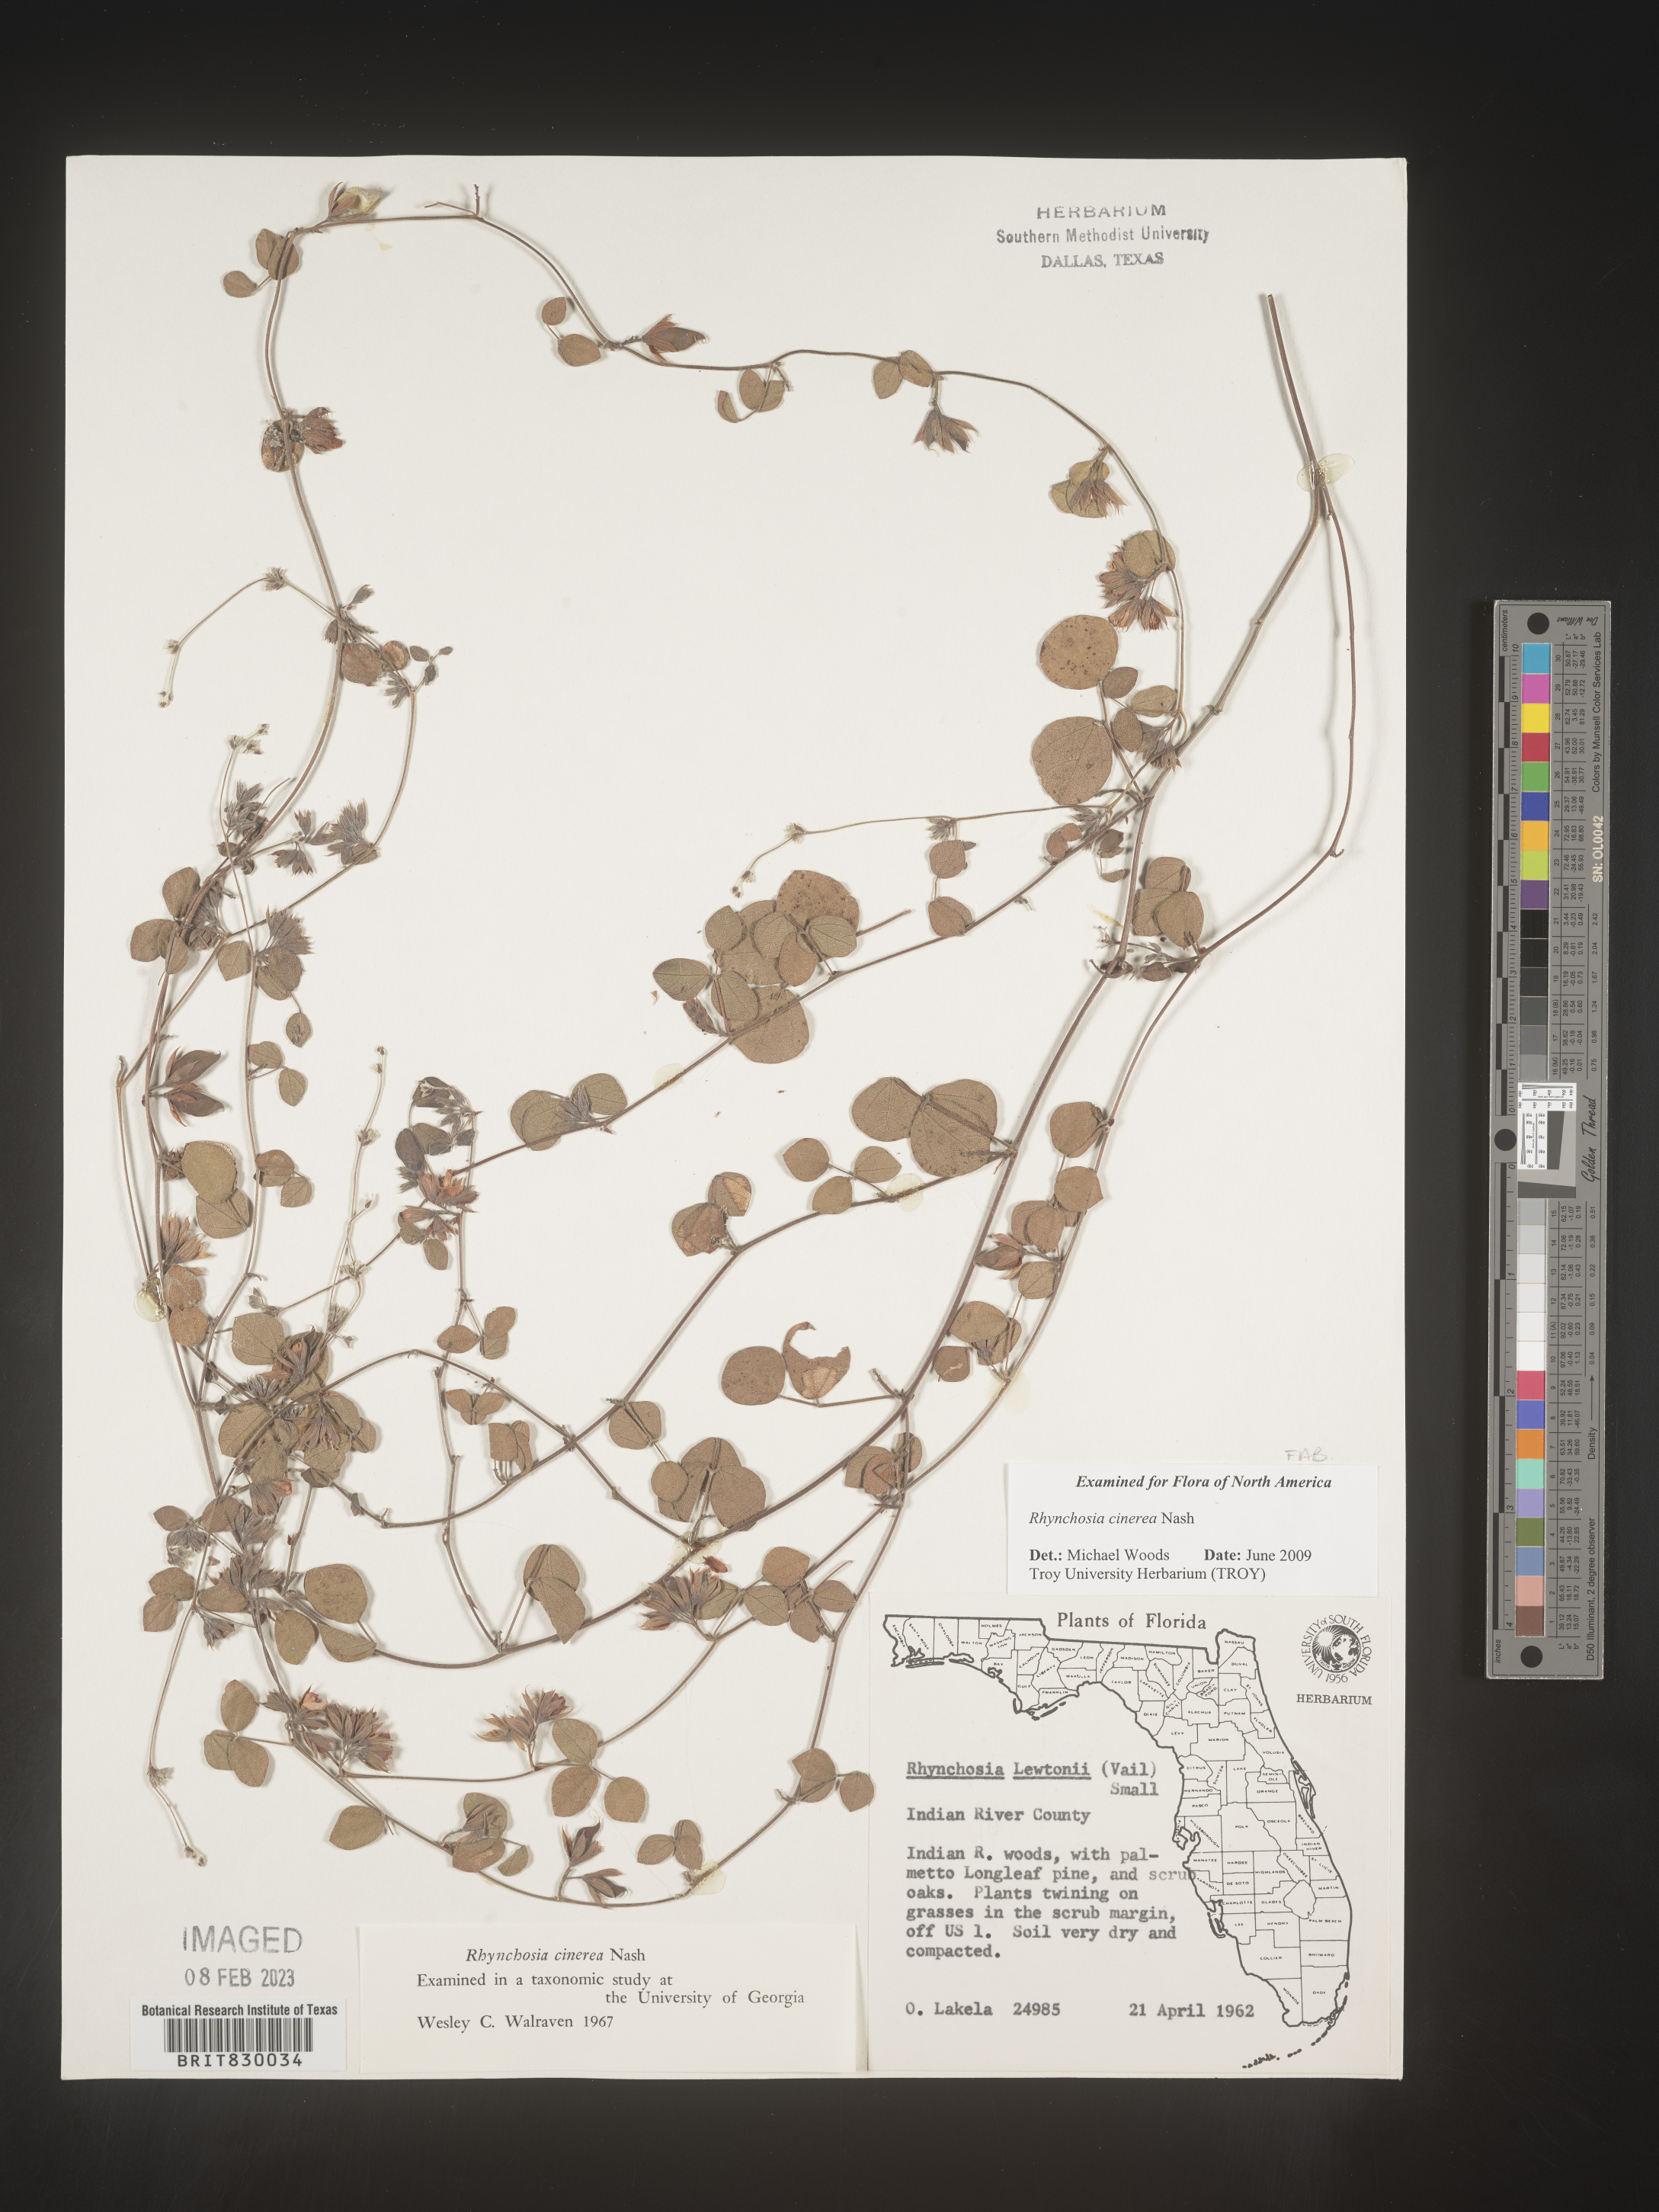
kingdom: Plantae
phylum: Tracheophyta
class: Magnoliopsida
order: Fabales
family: Fabaceae
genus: Rhynchosia
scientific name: Rhynchosia
